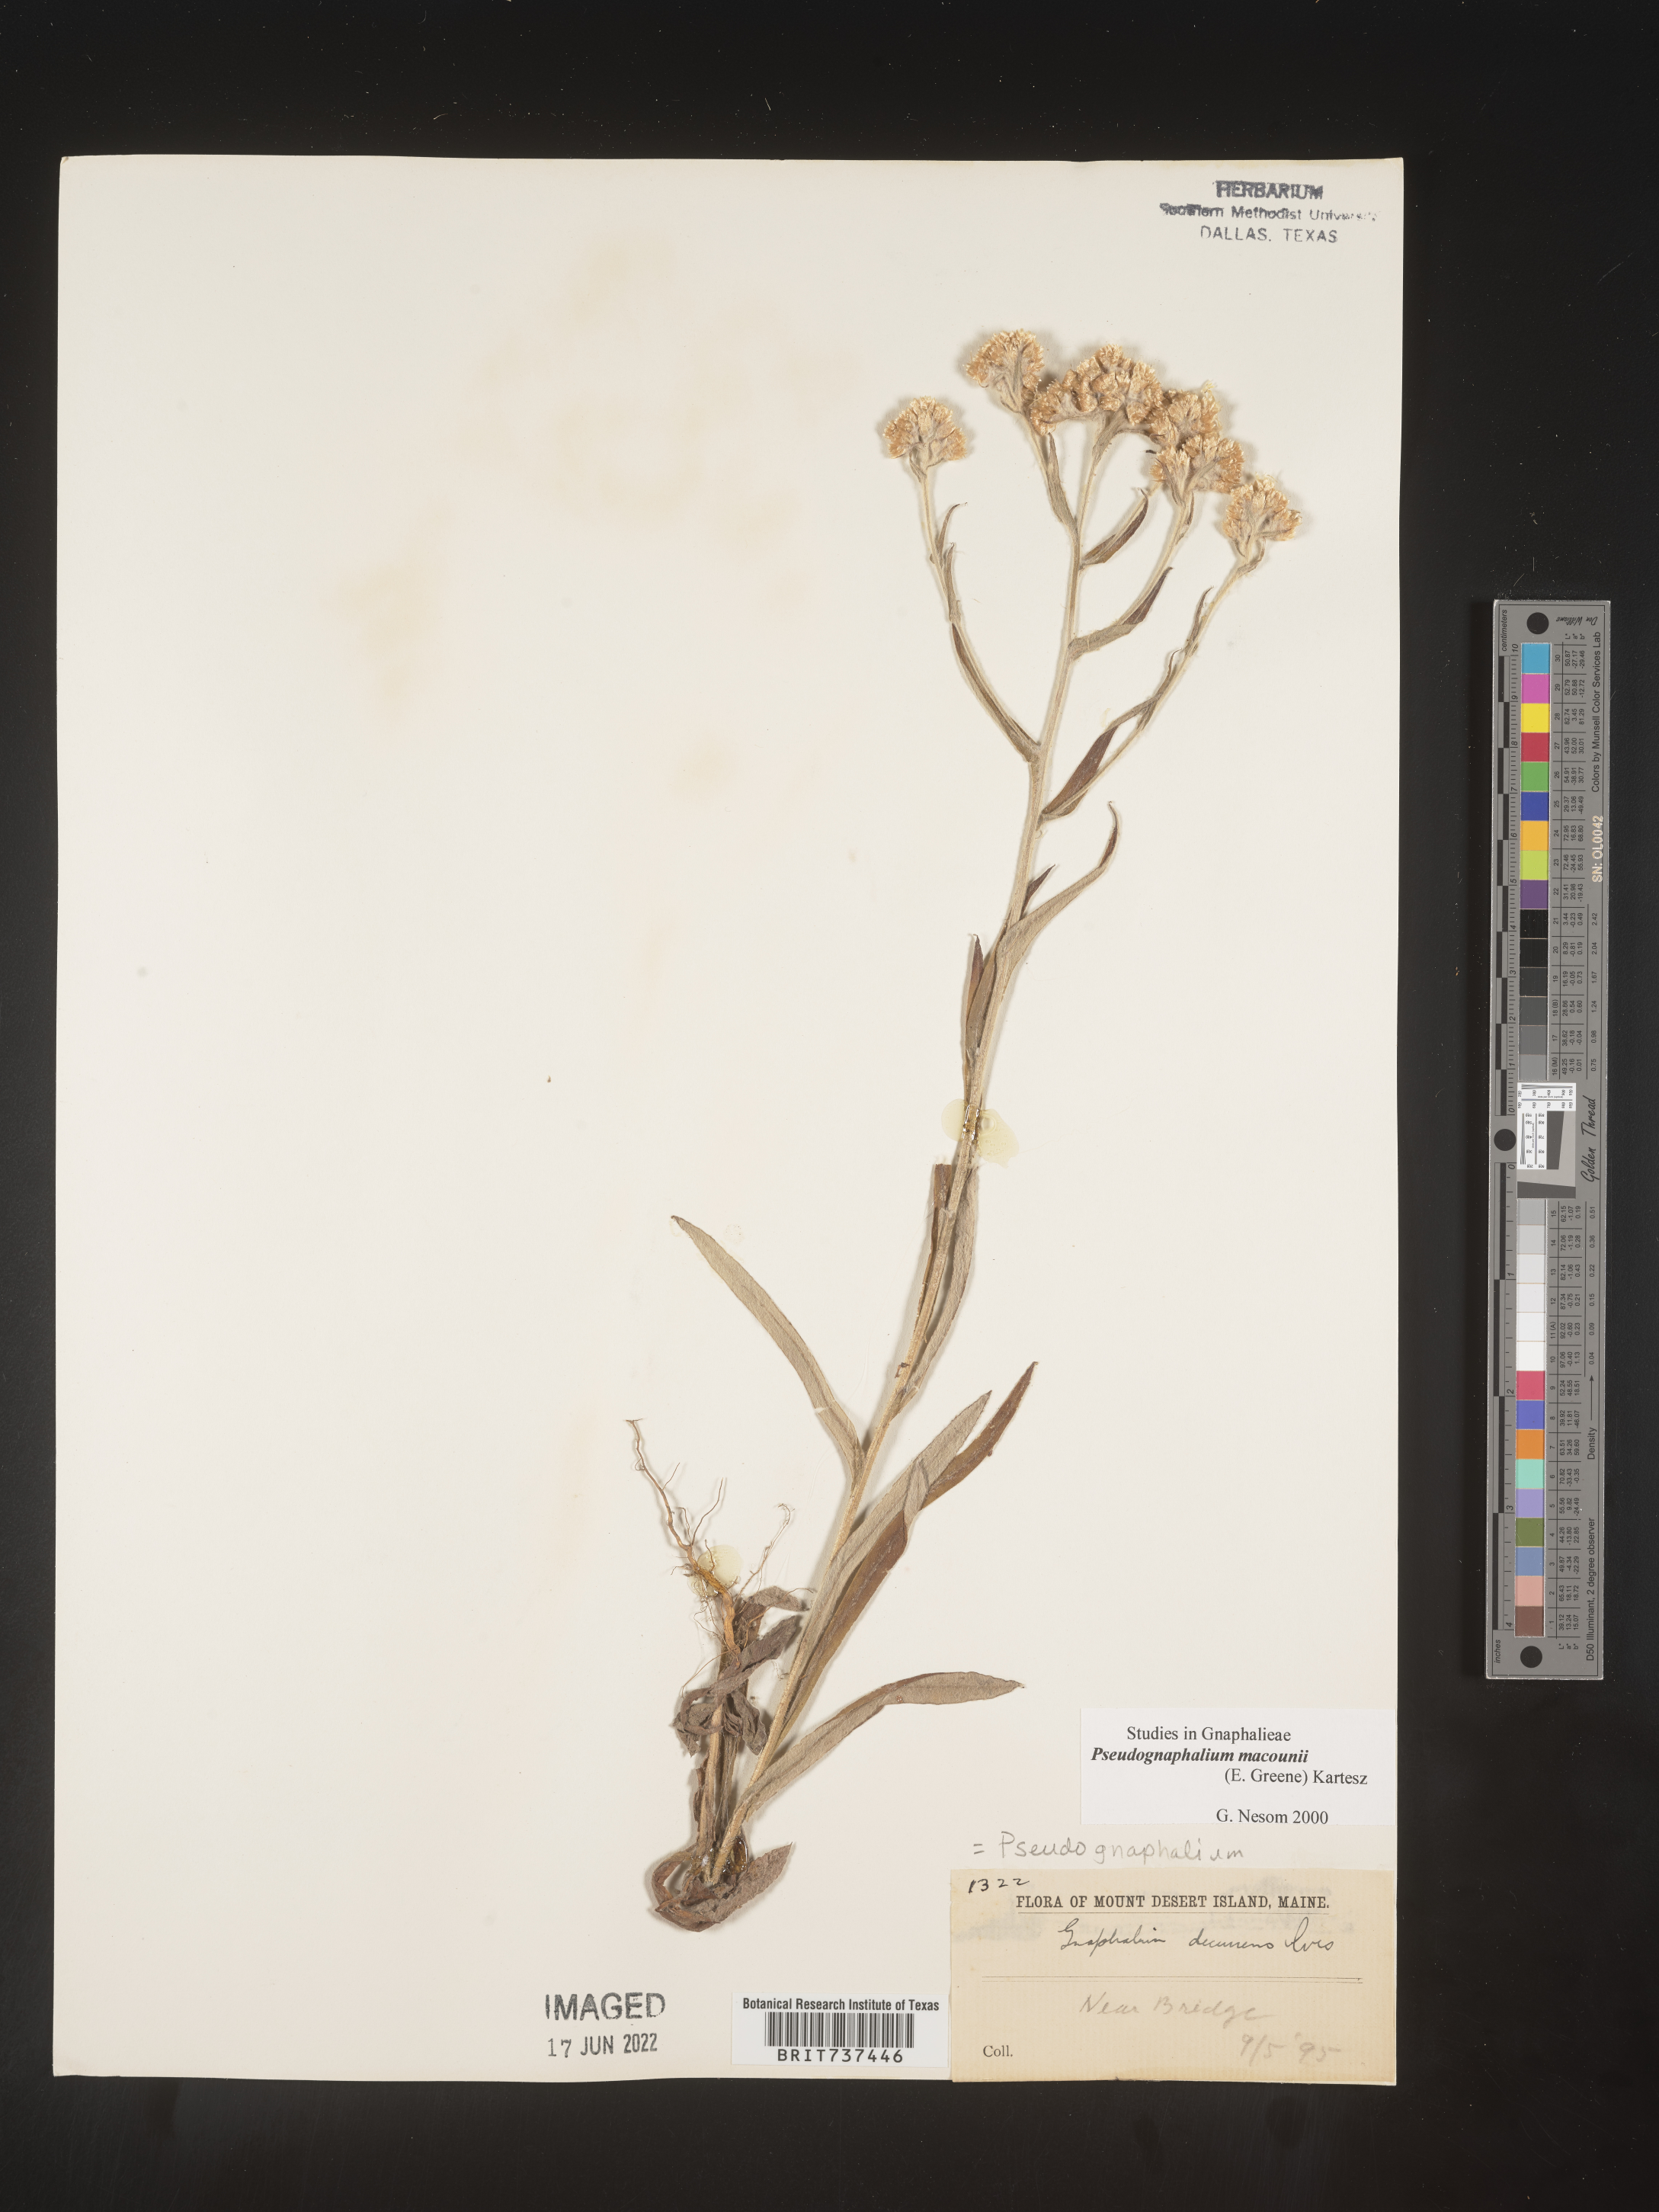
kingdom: Plantae
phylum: Tracheophyta
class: Magnoliopsida
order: Asterales
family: Asteraceae
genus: Pseudognaphalium
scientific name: Pseudognaphalium macounii
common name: Clammy cudweed
